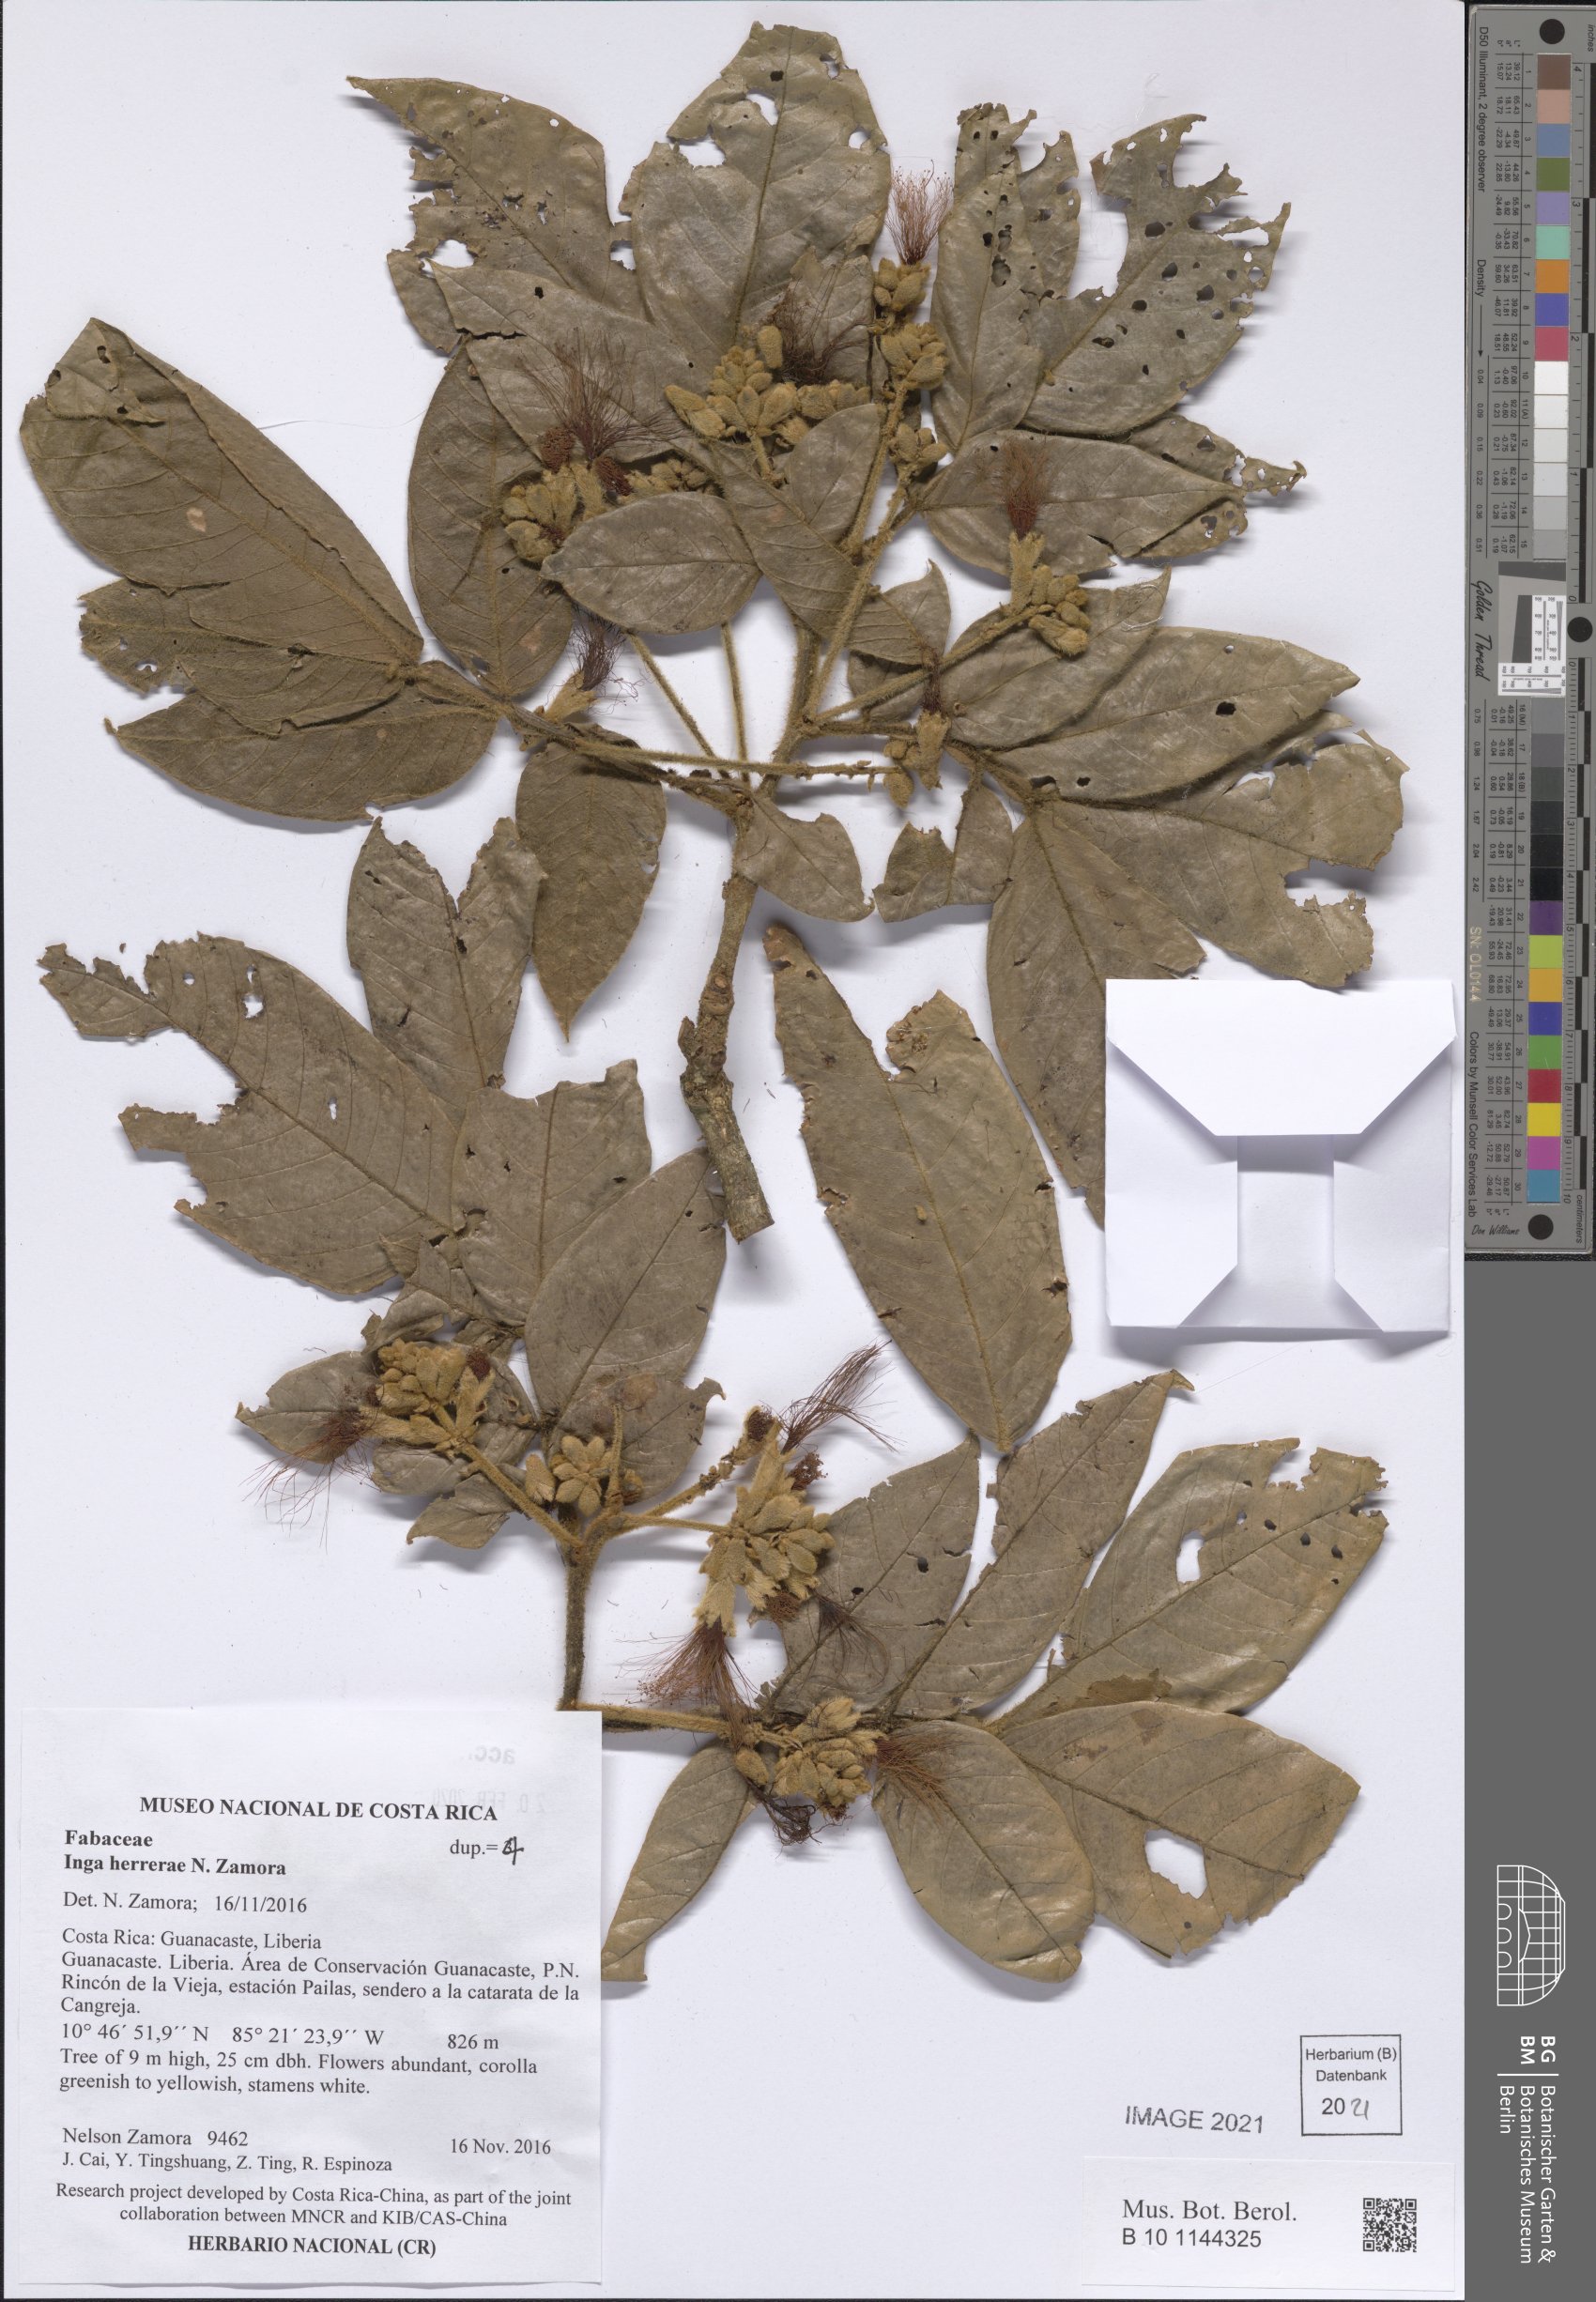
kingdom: Plantae
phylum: Tracheophyta
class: Magnoliopsida
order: Fabales
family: Fabaceae
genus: Inga
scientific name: Inga herrerae
